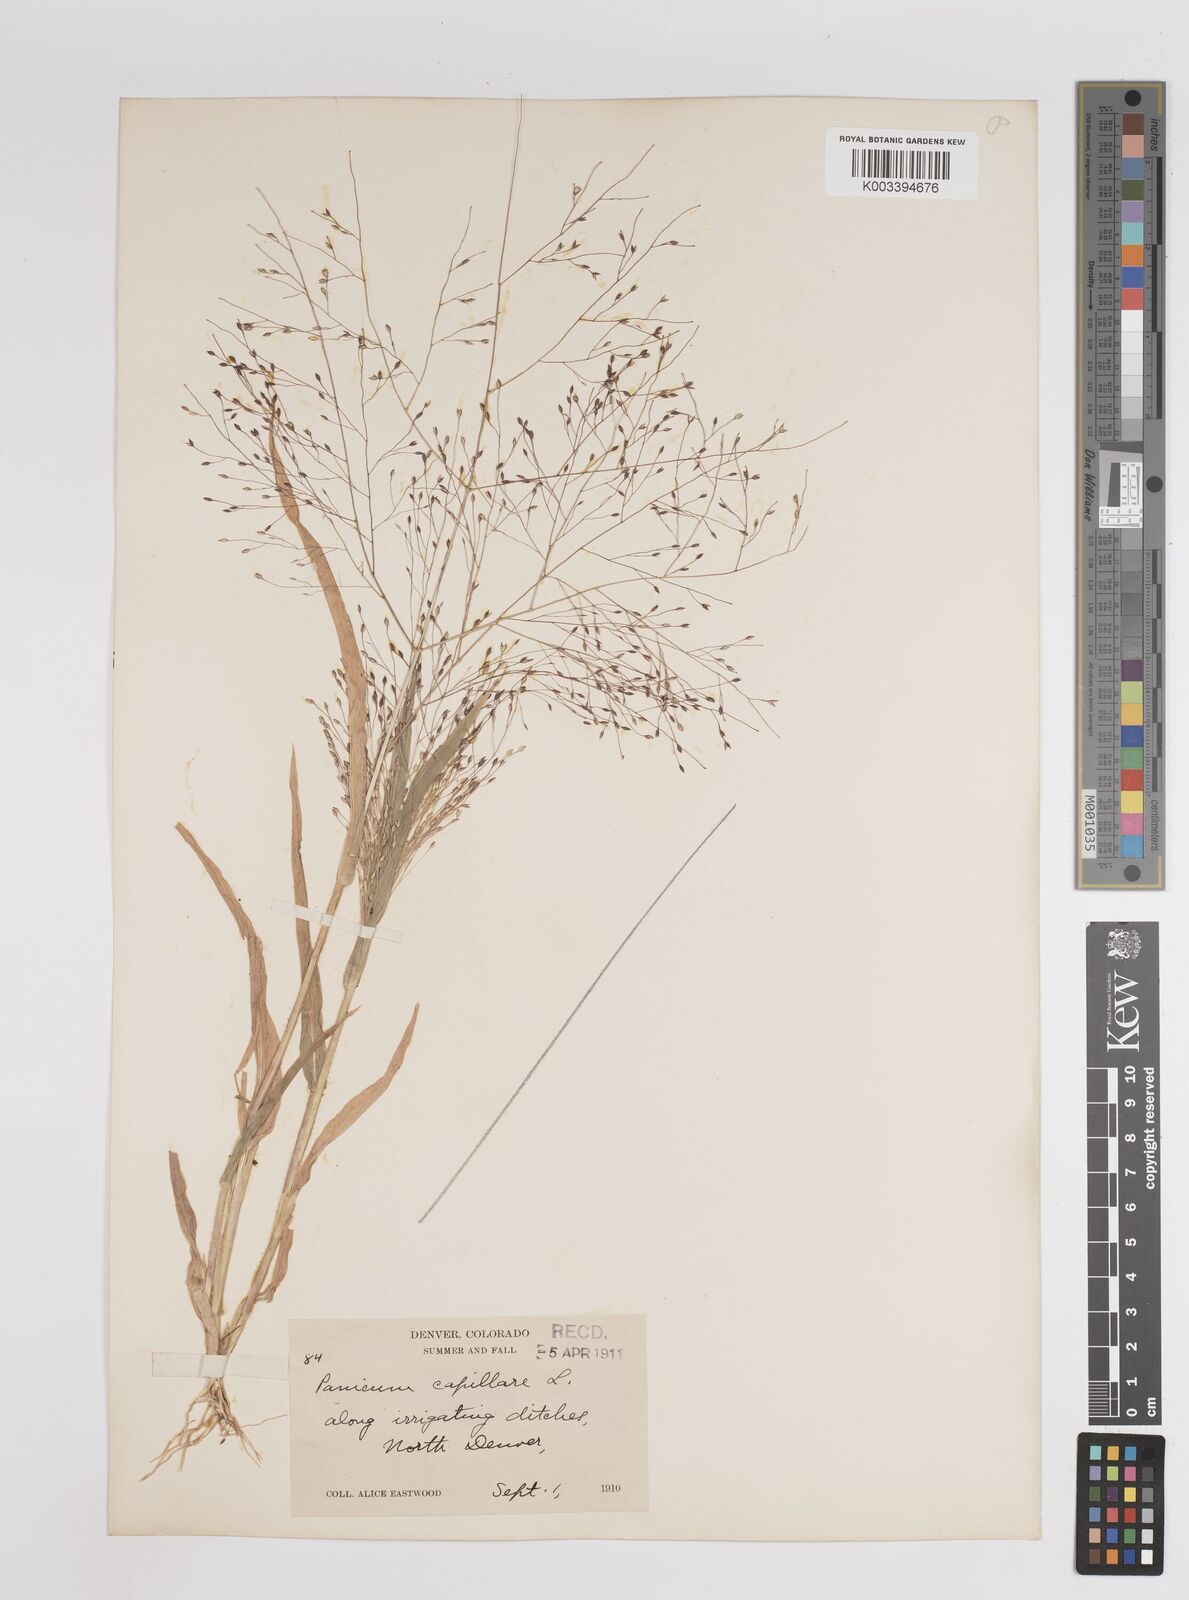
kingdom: Plantae
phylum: Tracheophyta
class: Liliopsida
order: Poales
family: Poaceae
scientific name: Poaceae
